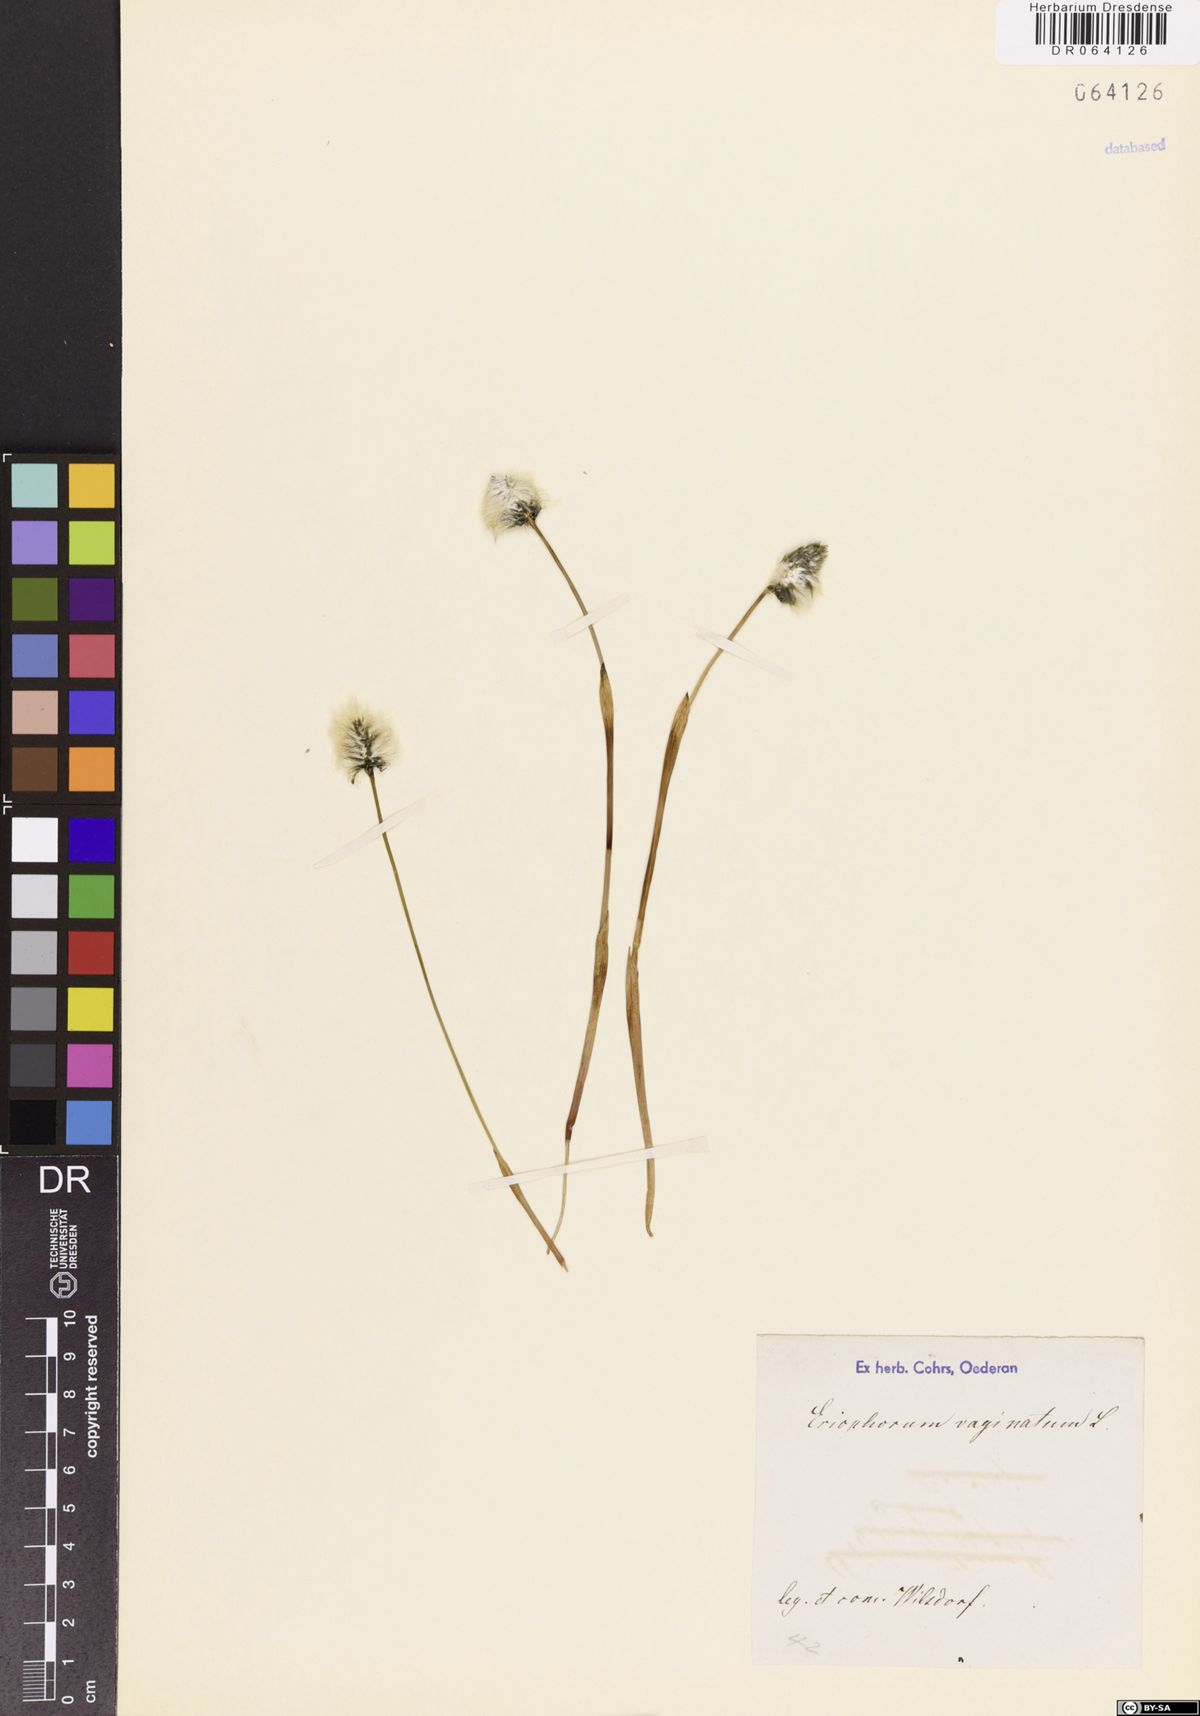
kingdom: Plantae
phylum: Tracheophyta
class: Liliopsida
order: Poales
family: Cyperaceae
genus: Eriophorum
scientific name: Eriophorum vaginatum
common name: Hare's-tail cottongrass
